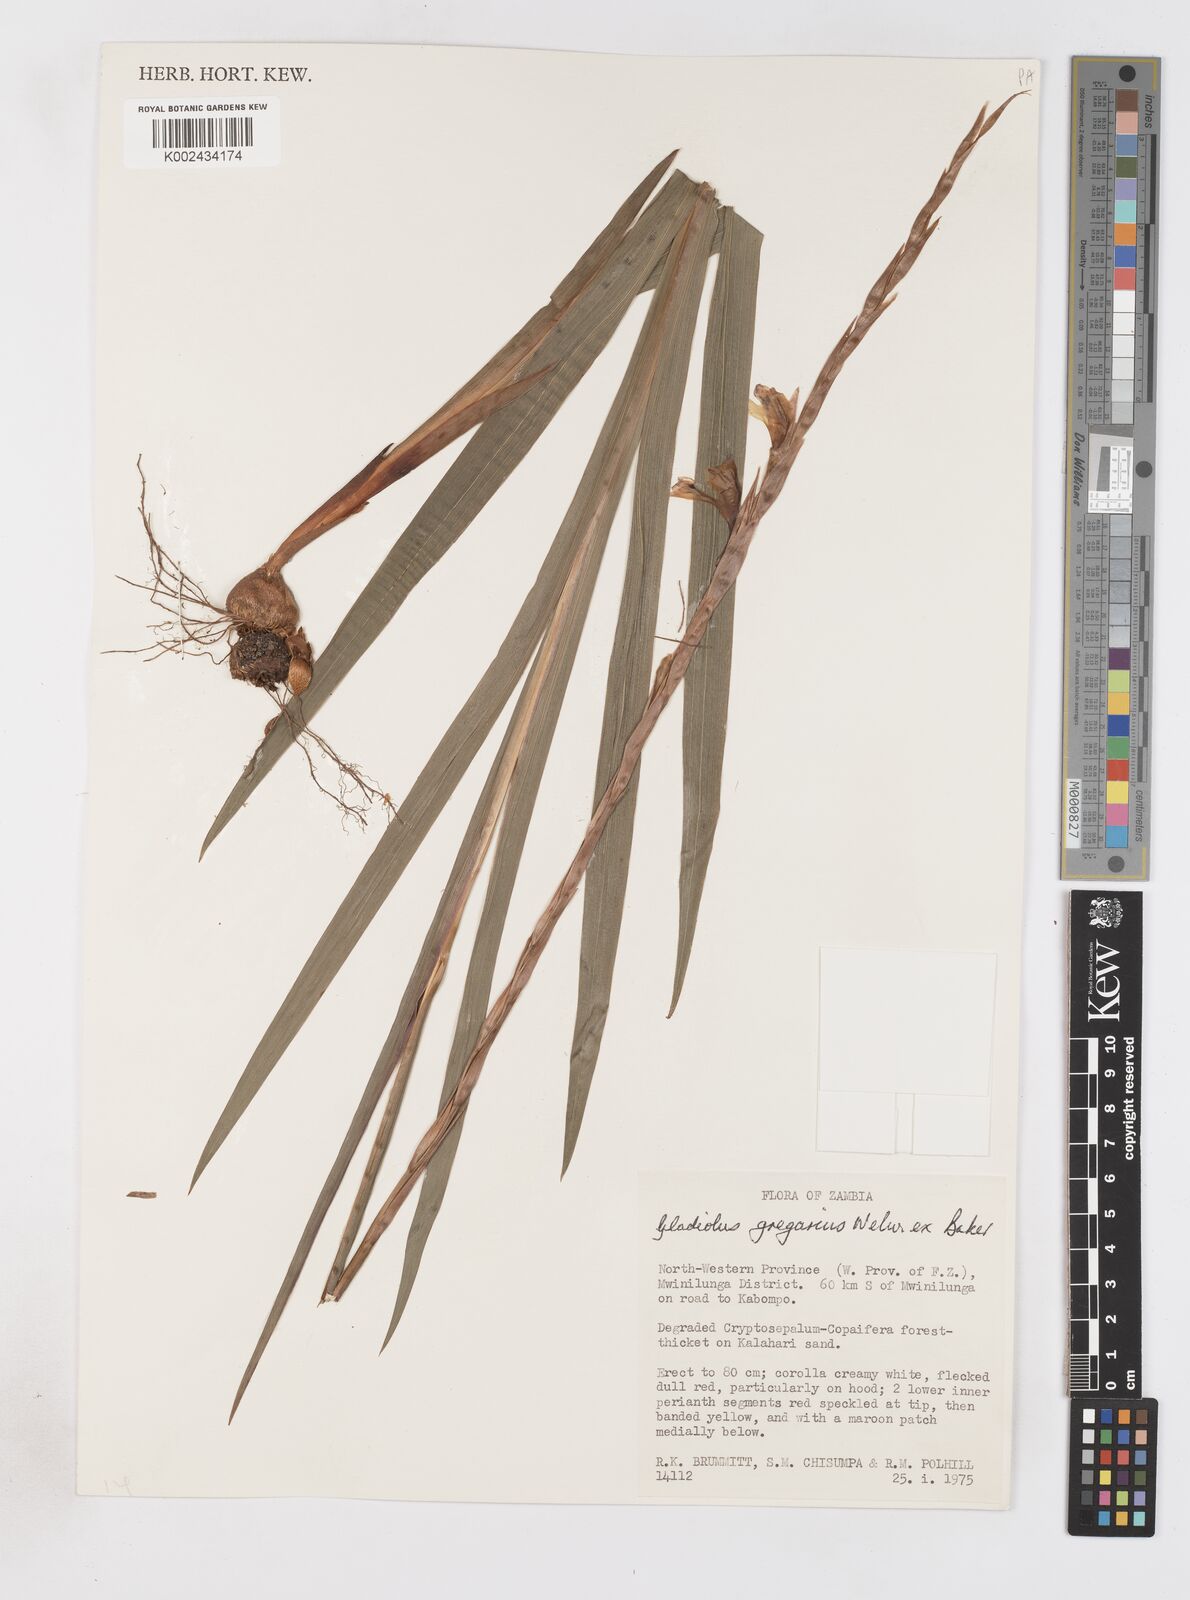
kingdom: Plantae
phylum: Tracheophyta
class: Liliopsida
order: Asparagales
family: Iridaceae
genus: Gladiolus
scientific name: Gladiolus gregarius
